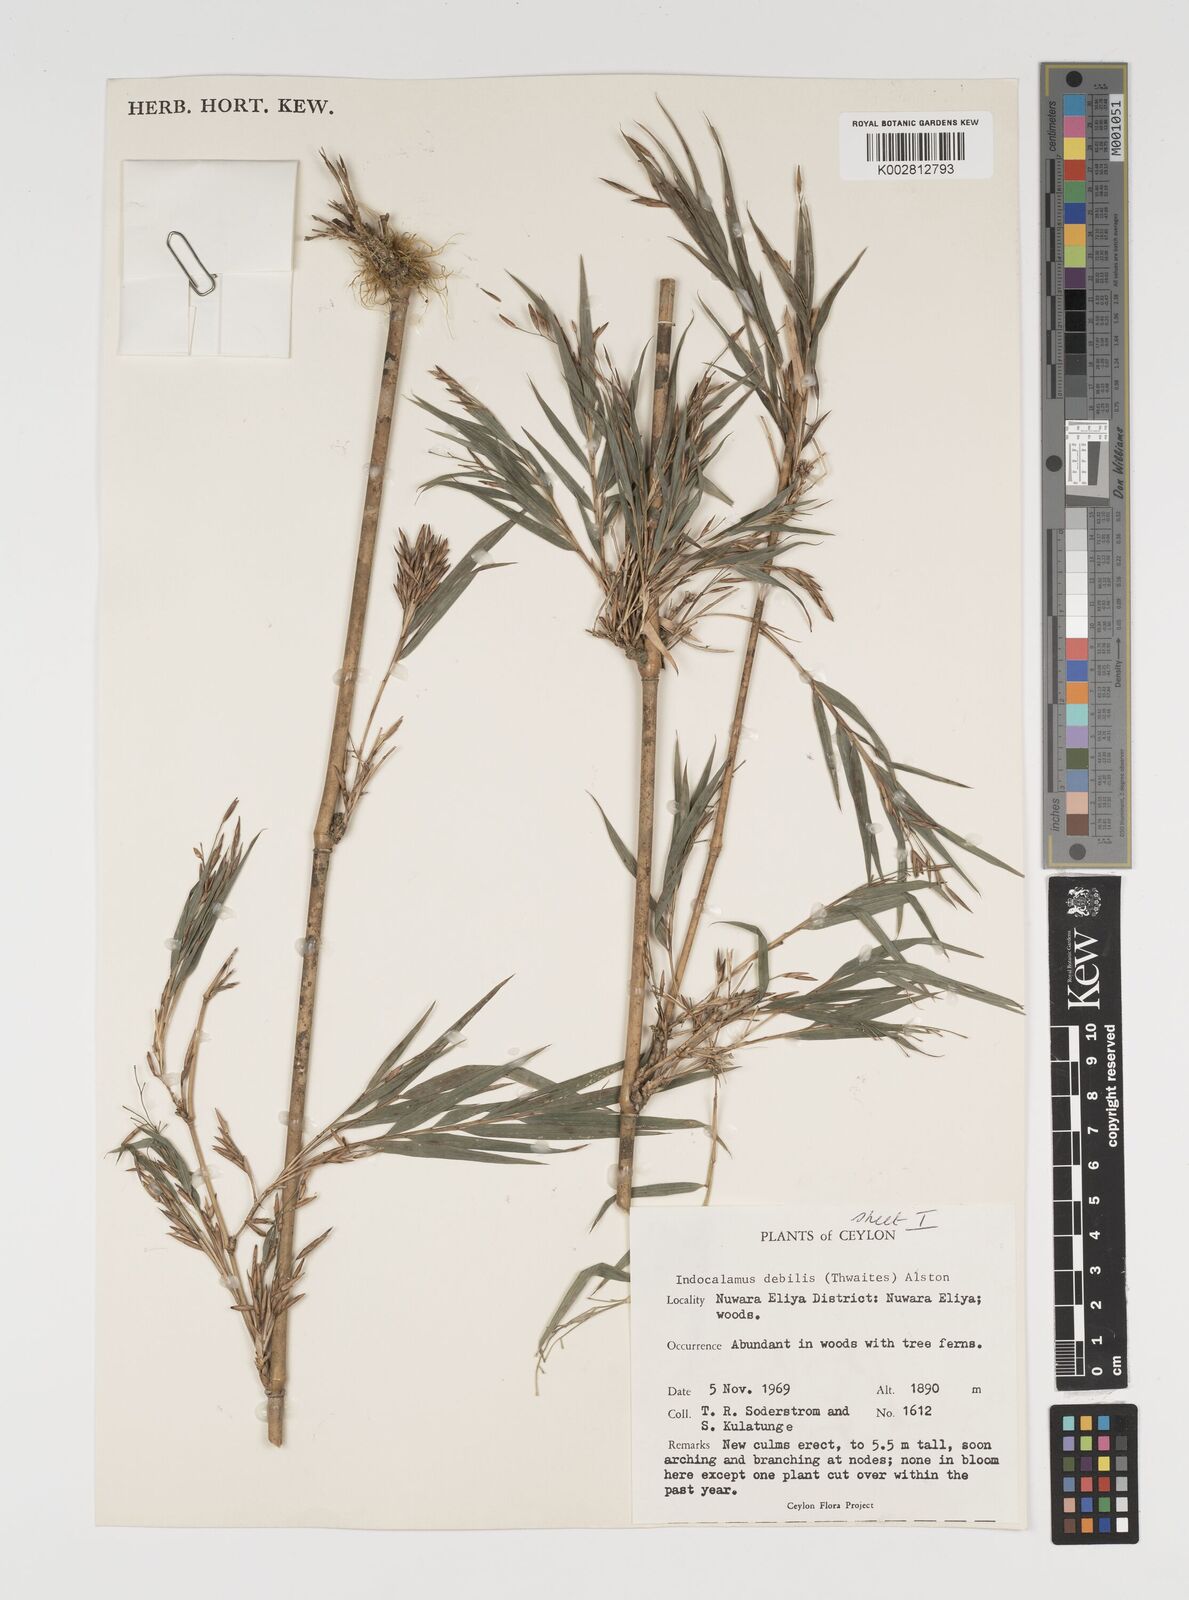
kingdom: Plantae
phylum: Tracheophyta
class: Liliopsida
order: Poales
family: Poaceae
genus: Kuruna
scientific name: Kuruna debilis
